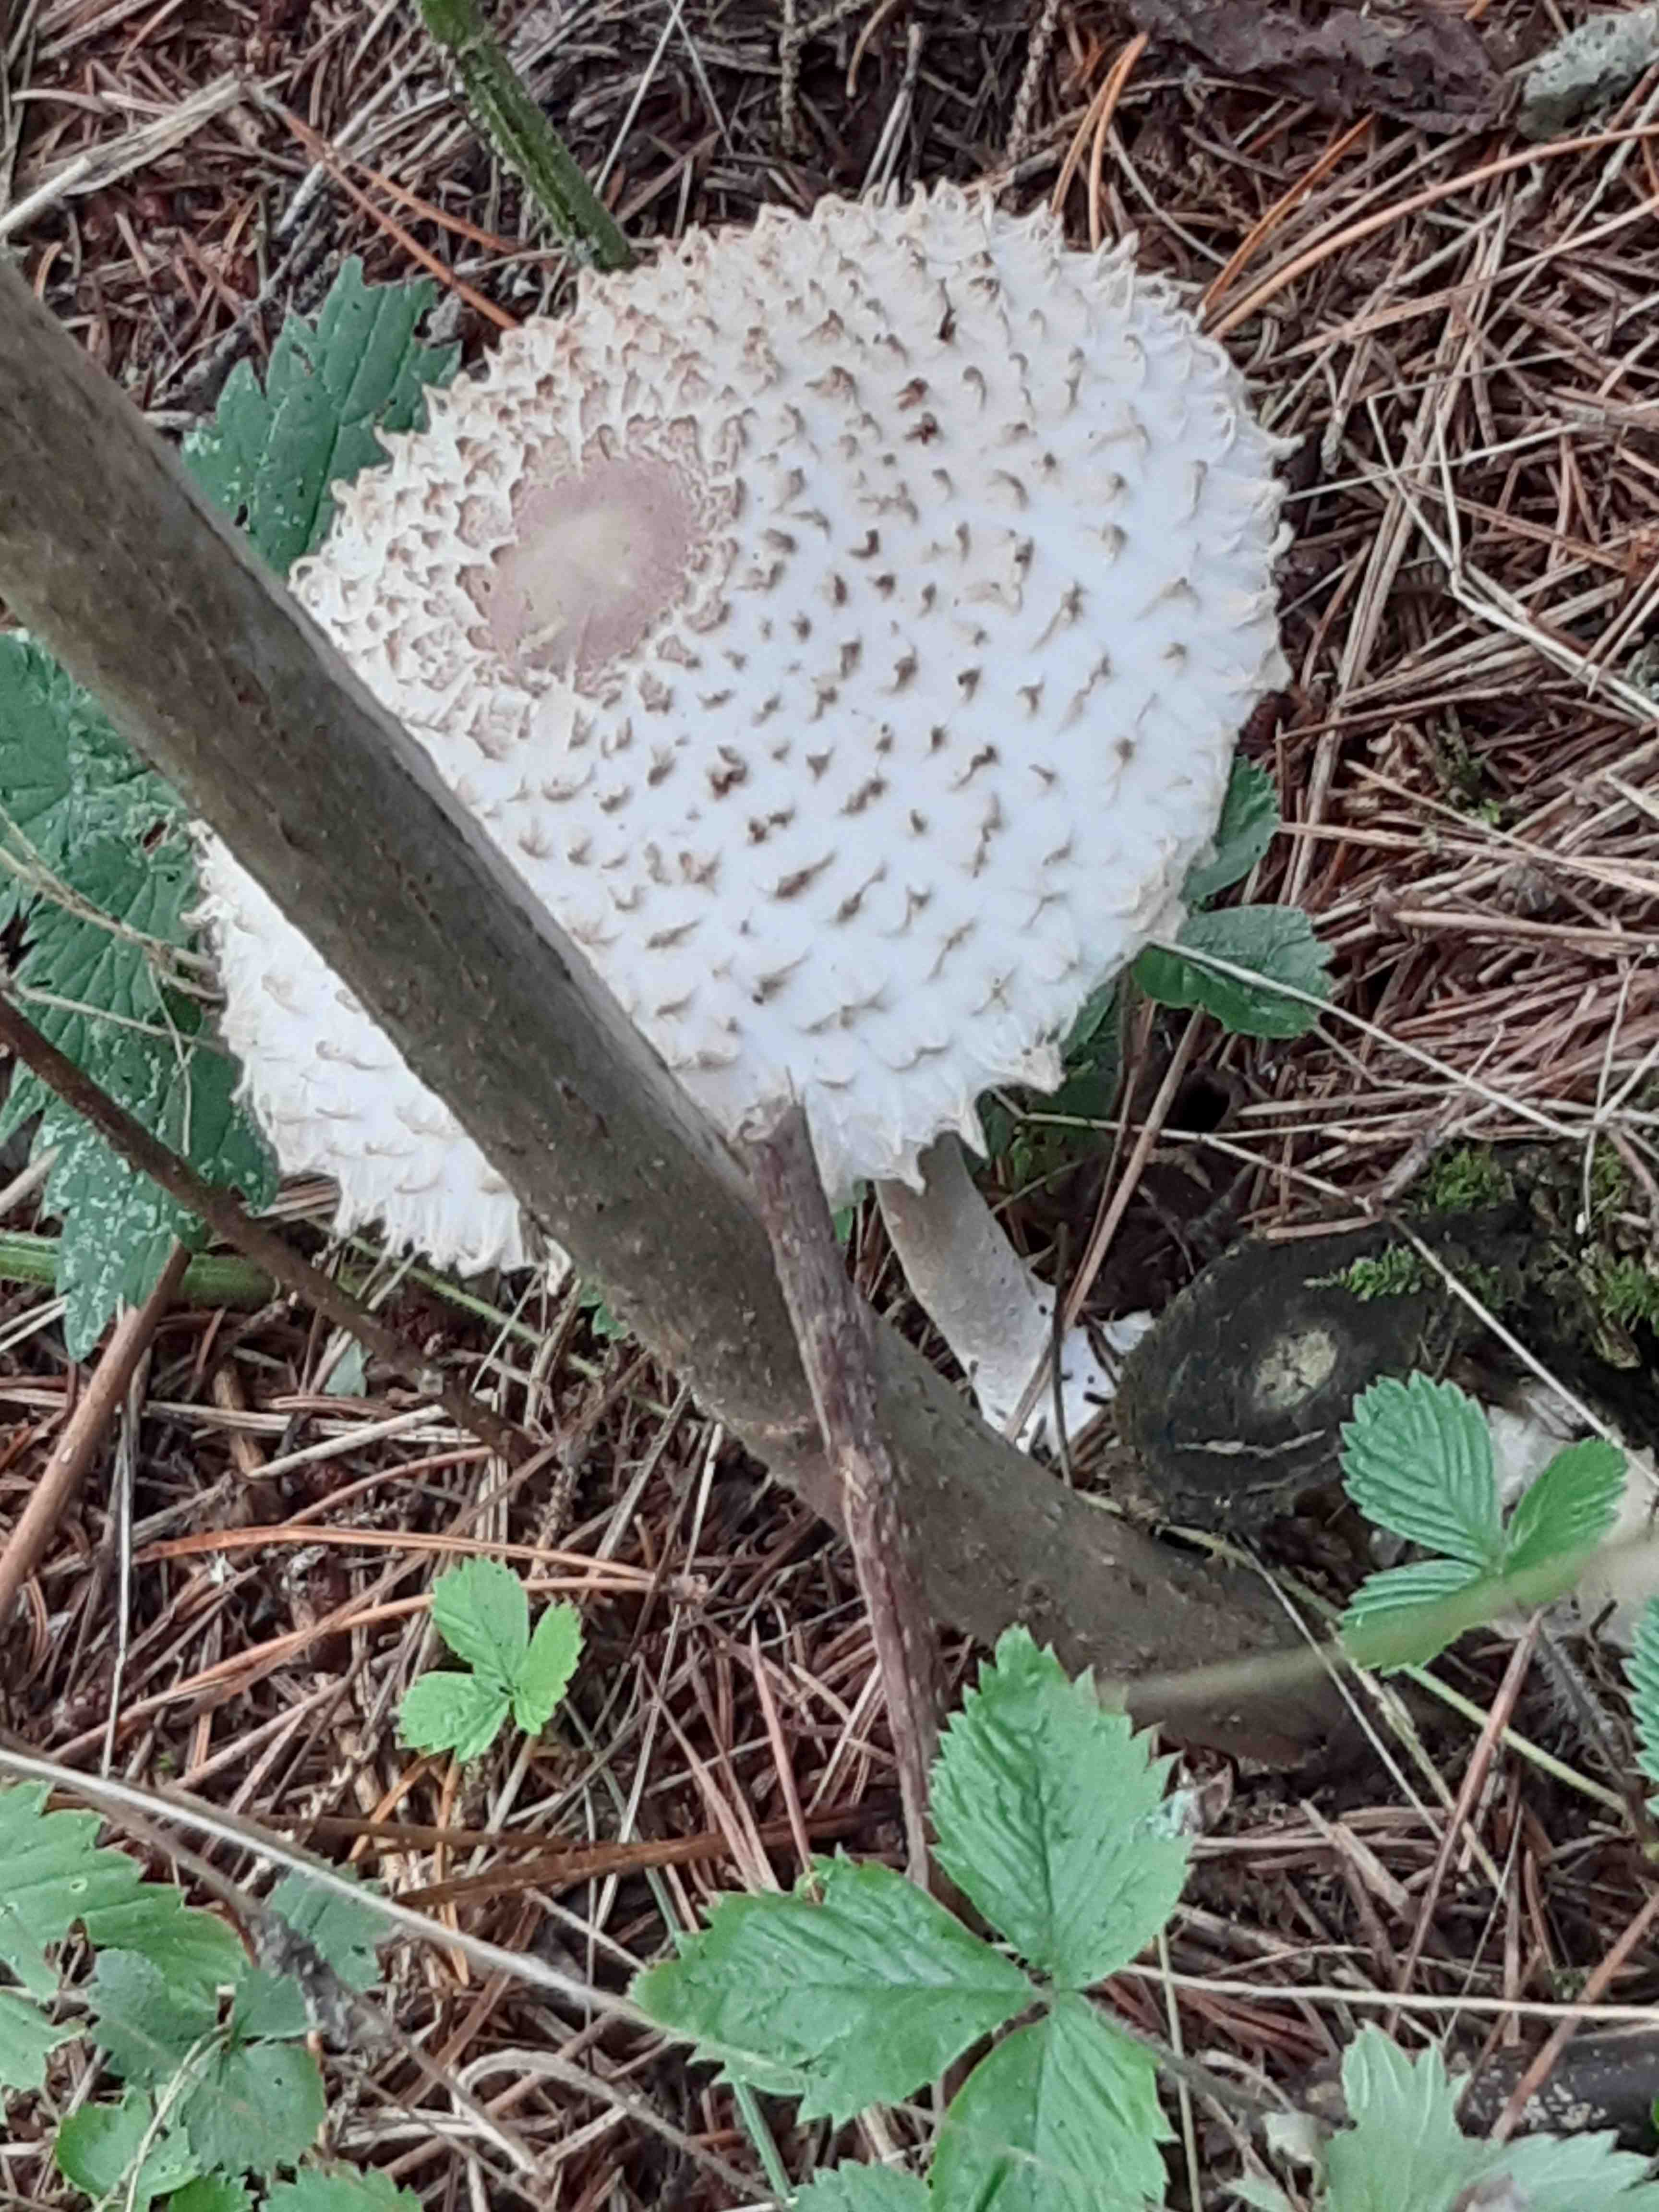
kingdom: Fungi
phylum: Basidiomycota
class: Agaricomycetes
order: Agaricales
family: Agaricaceae
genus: Leucoagaricus
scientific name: Leucoagaricus nympharum
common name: gran-silkehat
